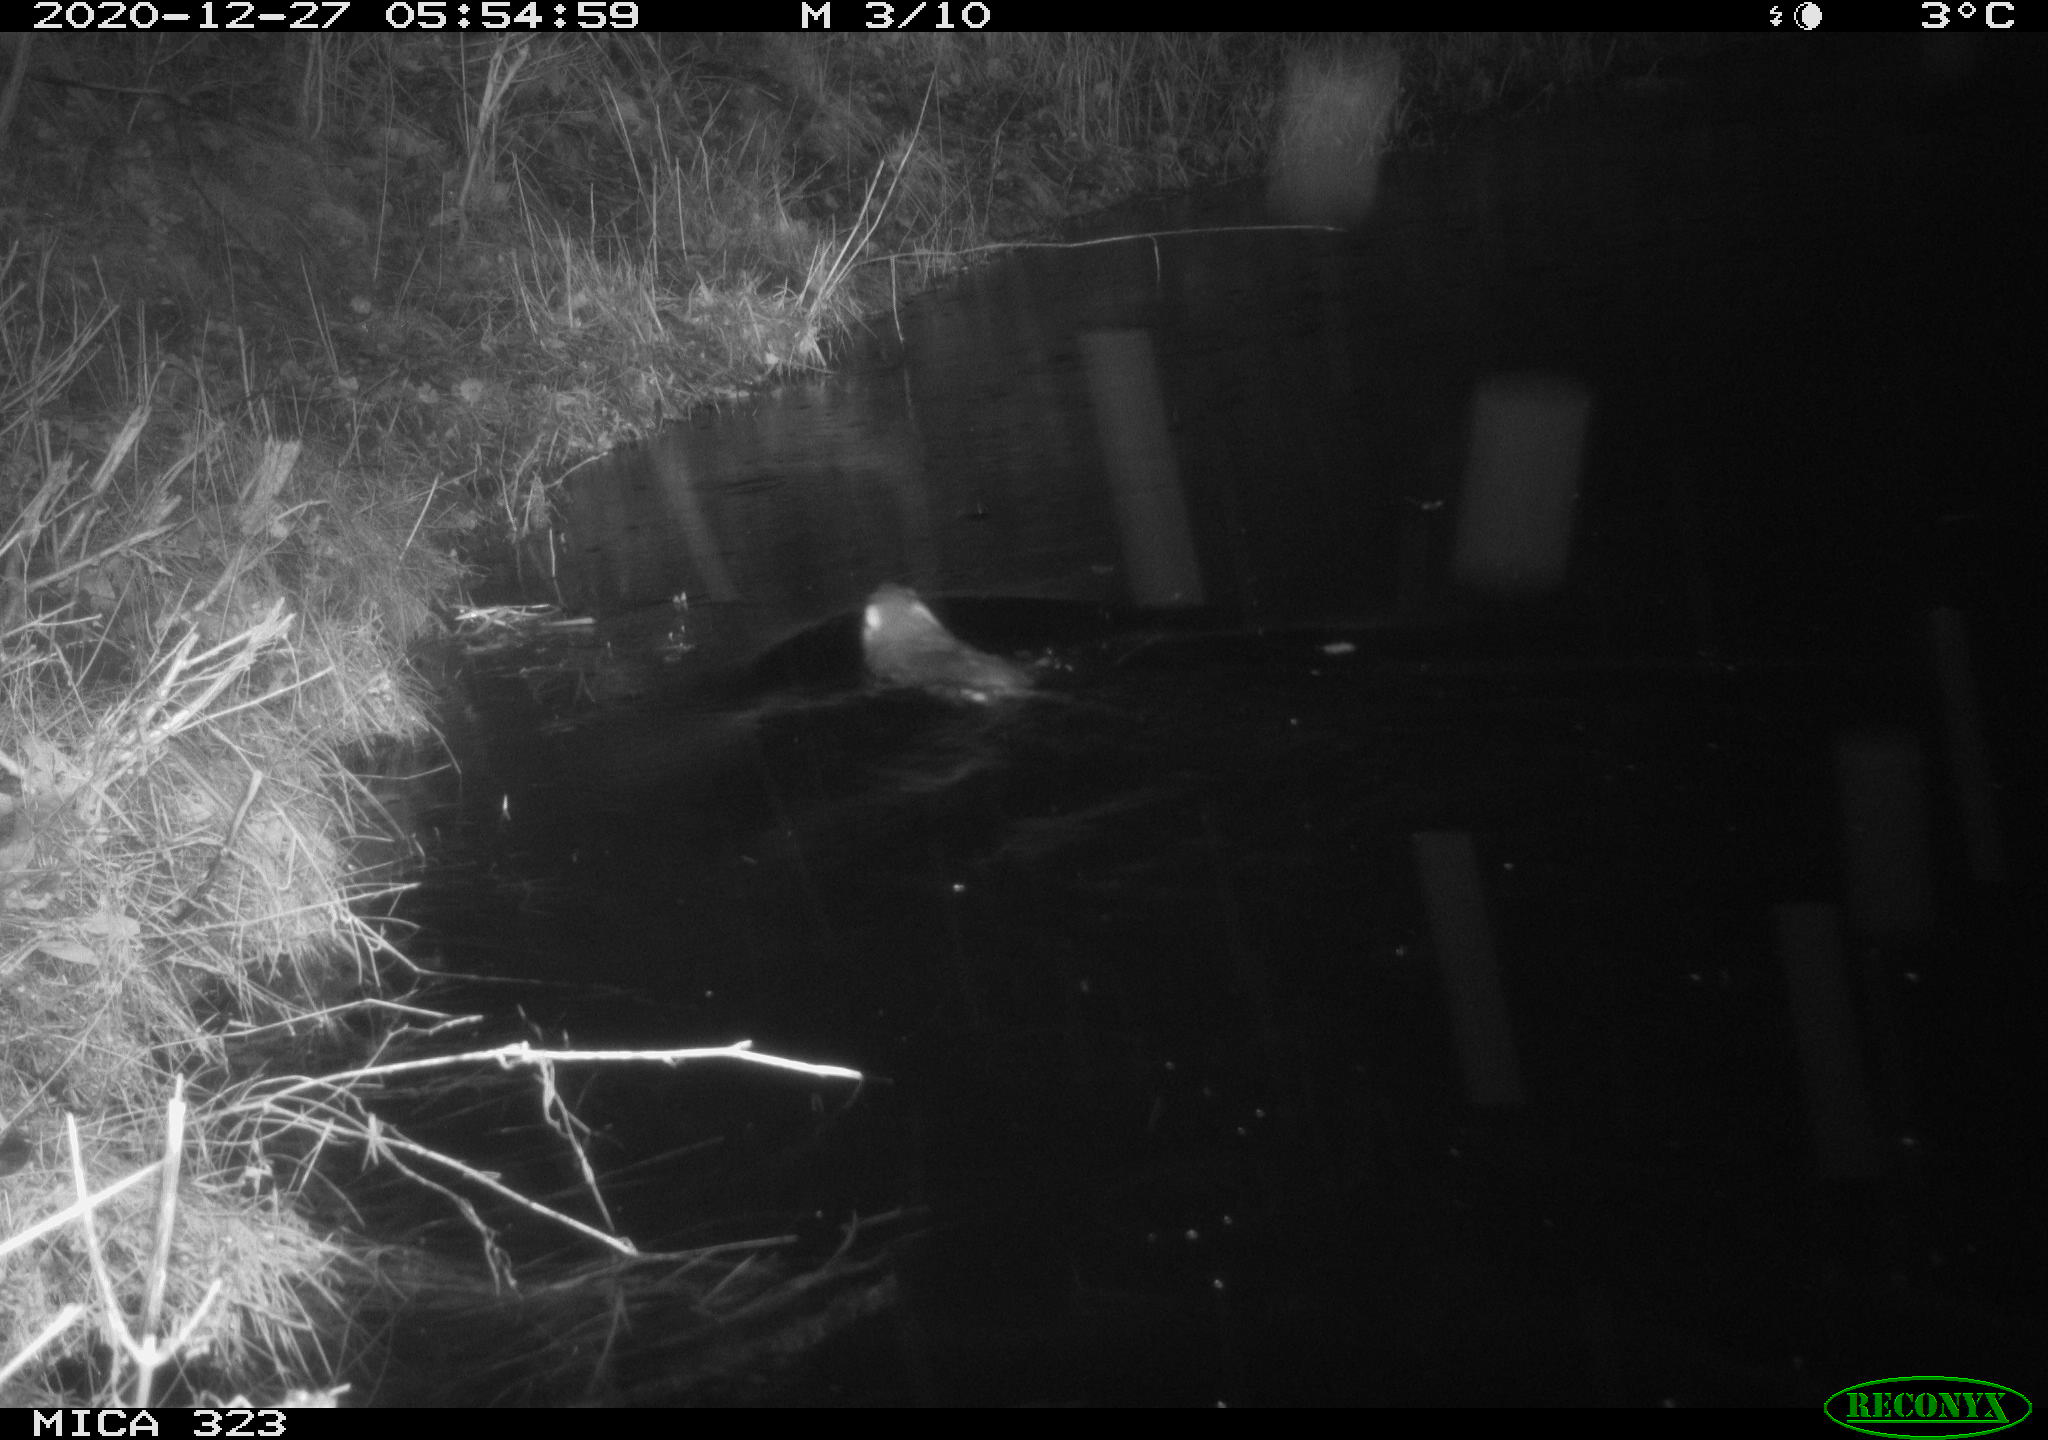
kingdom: Animalia
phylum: Chordata
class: Mammalia
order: Rodentia
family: Myocastoridae
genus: Myocastor
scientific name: Myocastor coypus
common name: Coypu
